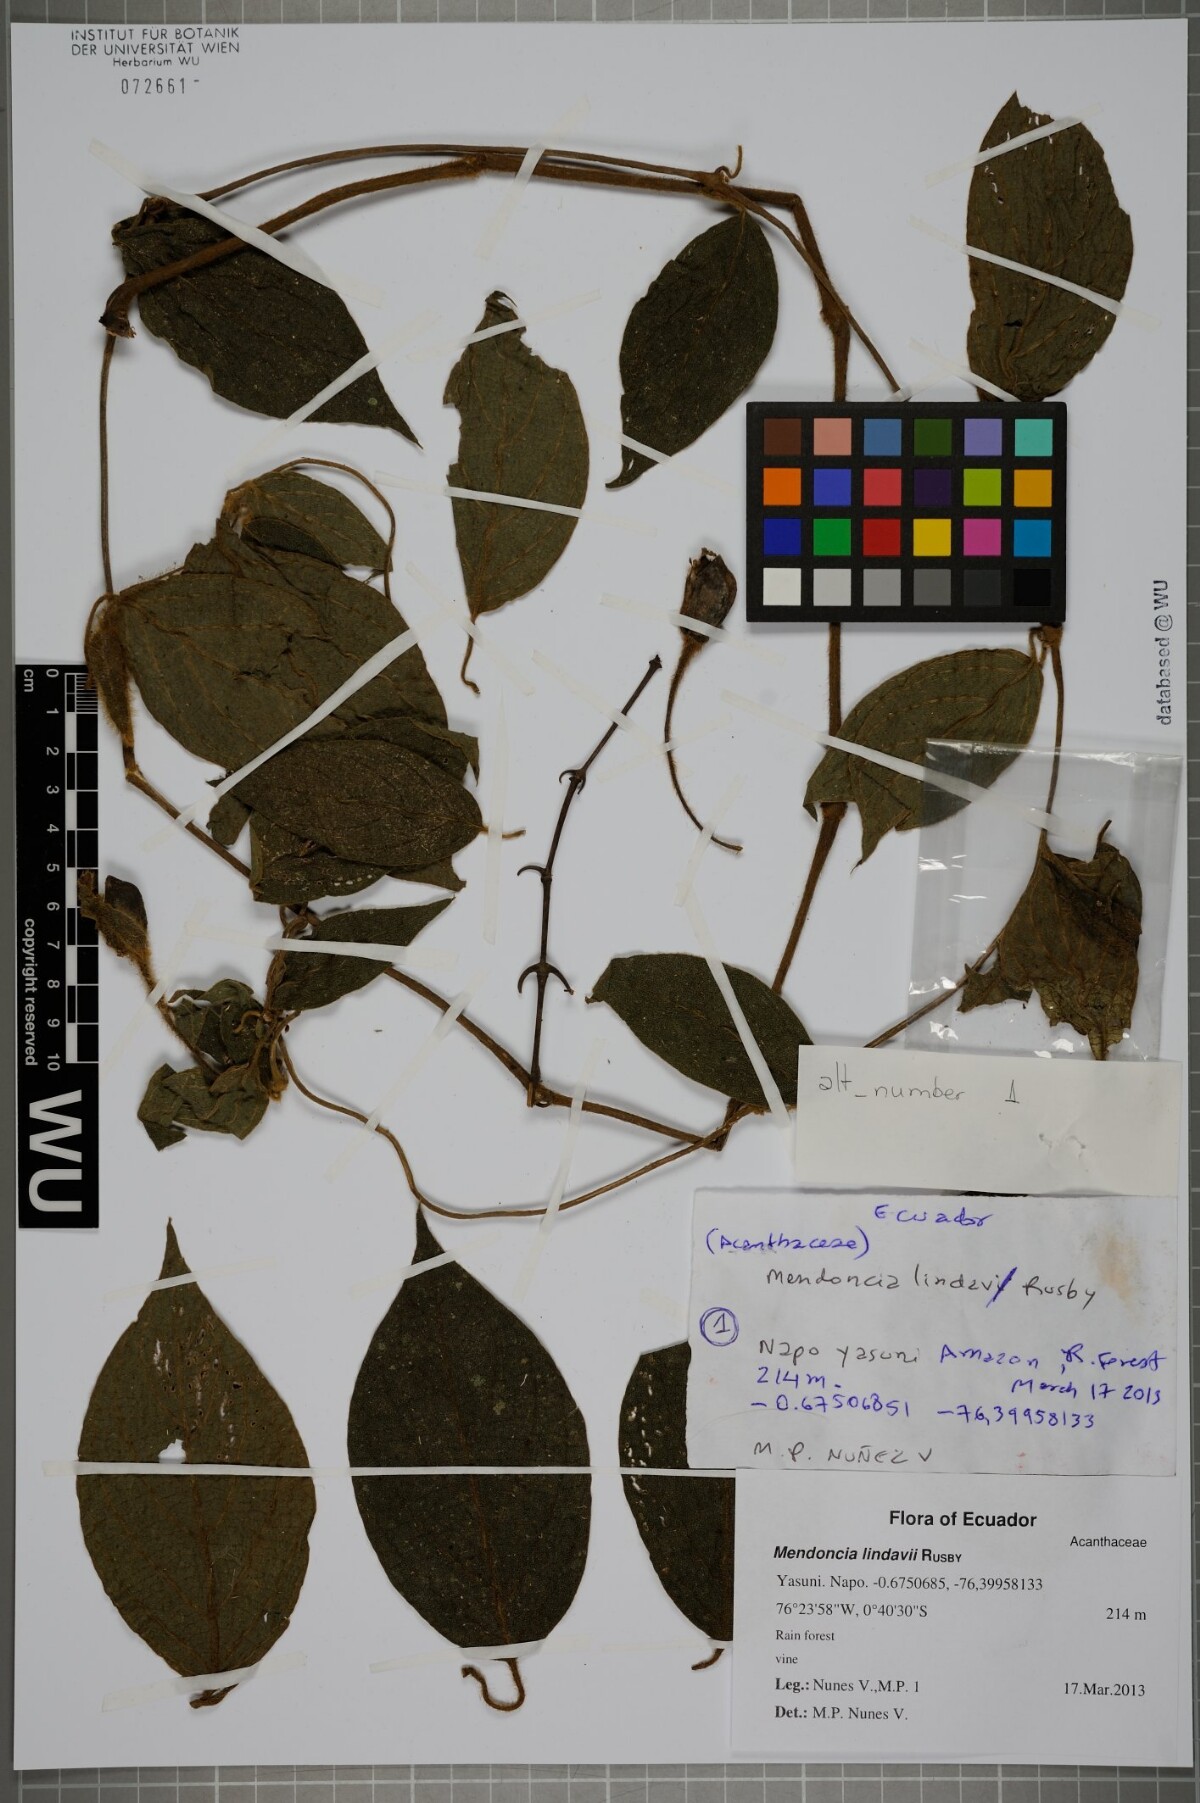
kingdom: Plantae
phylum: Tracheophyta
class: Magnoliopsida
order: Lamiales
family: Acanthaceae
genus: Mendoncia
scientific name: Mendoncia lindavii
